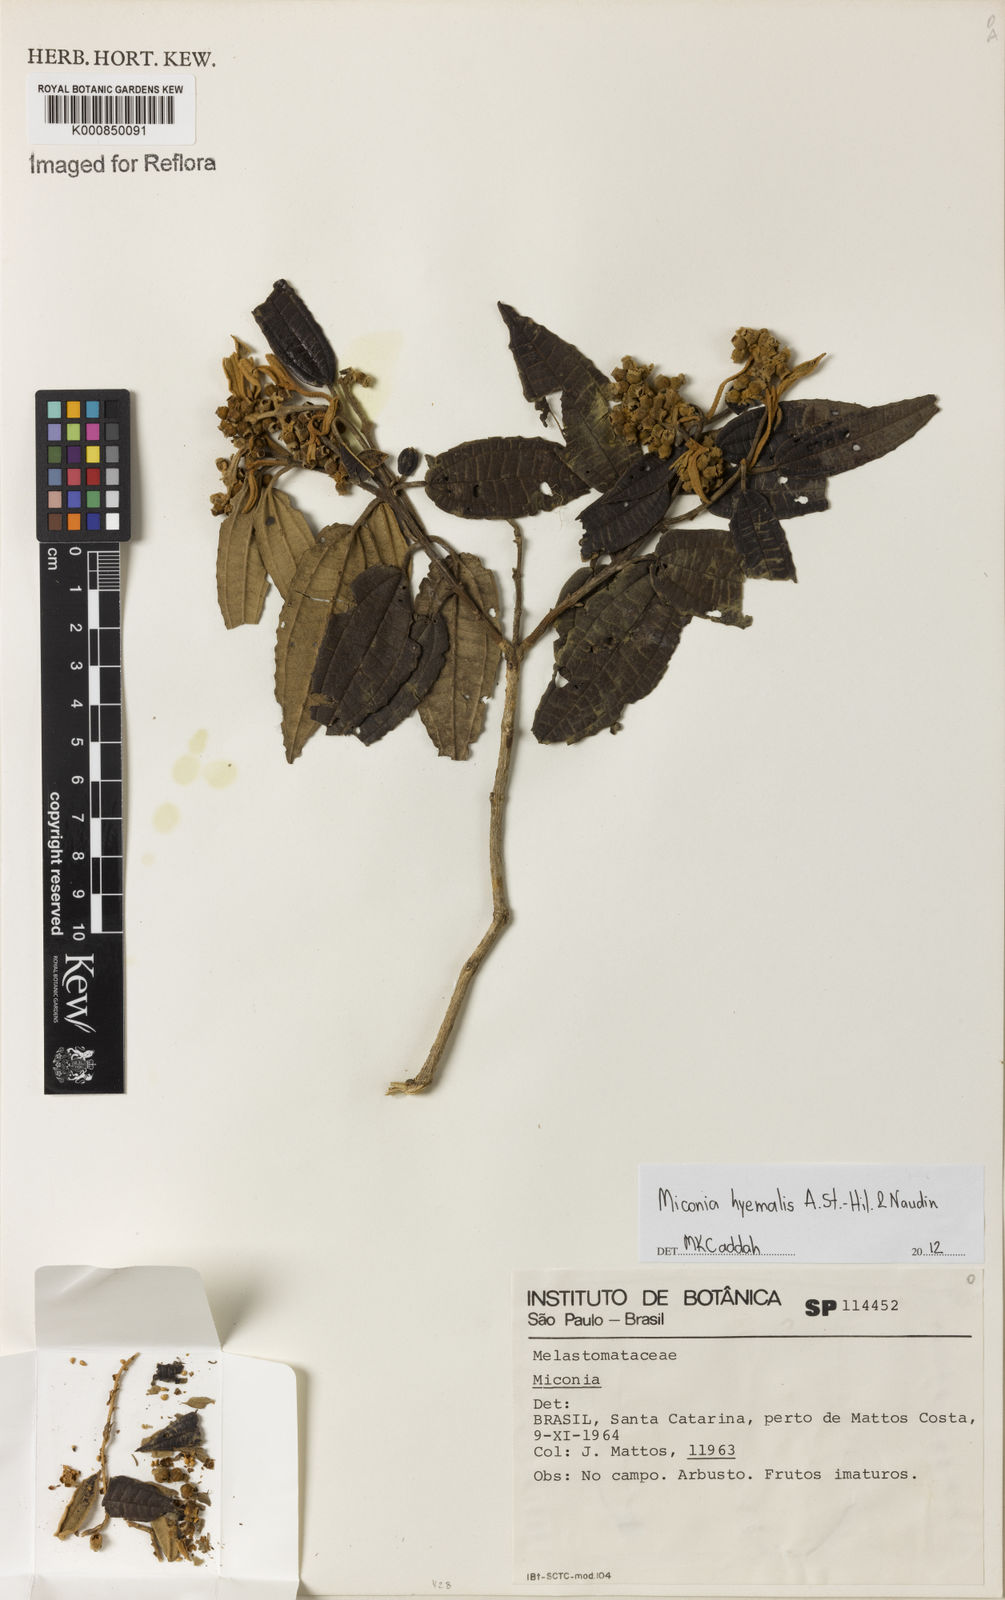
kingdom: Plantae
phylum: Tracheophyta
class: Magnoliopsida
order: Myrtales
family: Melastomataceae
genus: Miconia
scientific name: Miconia hyemalis
